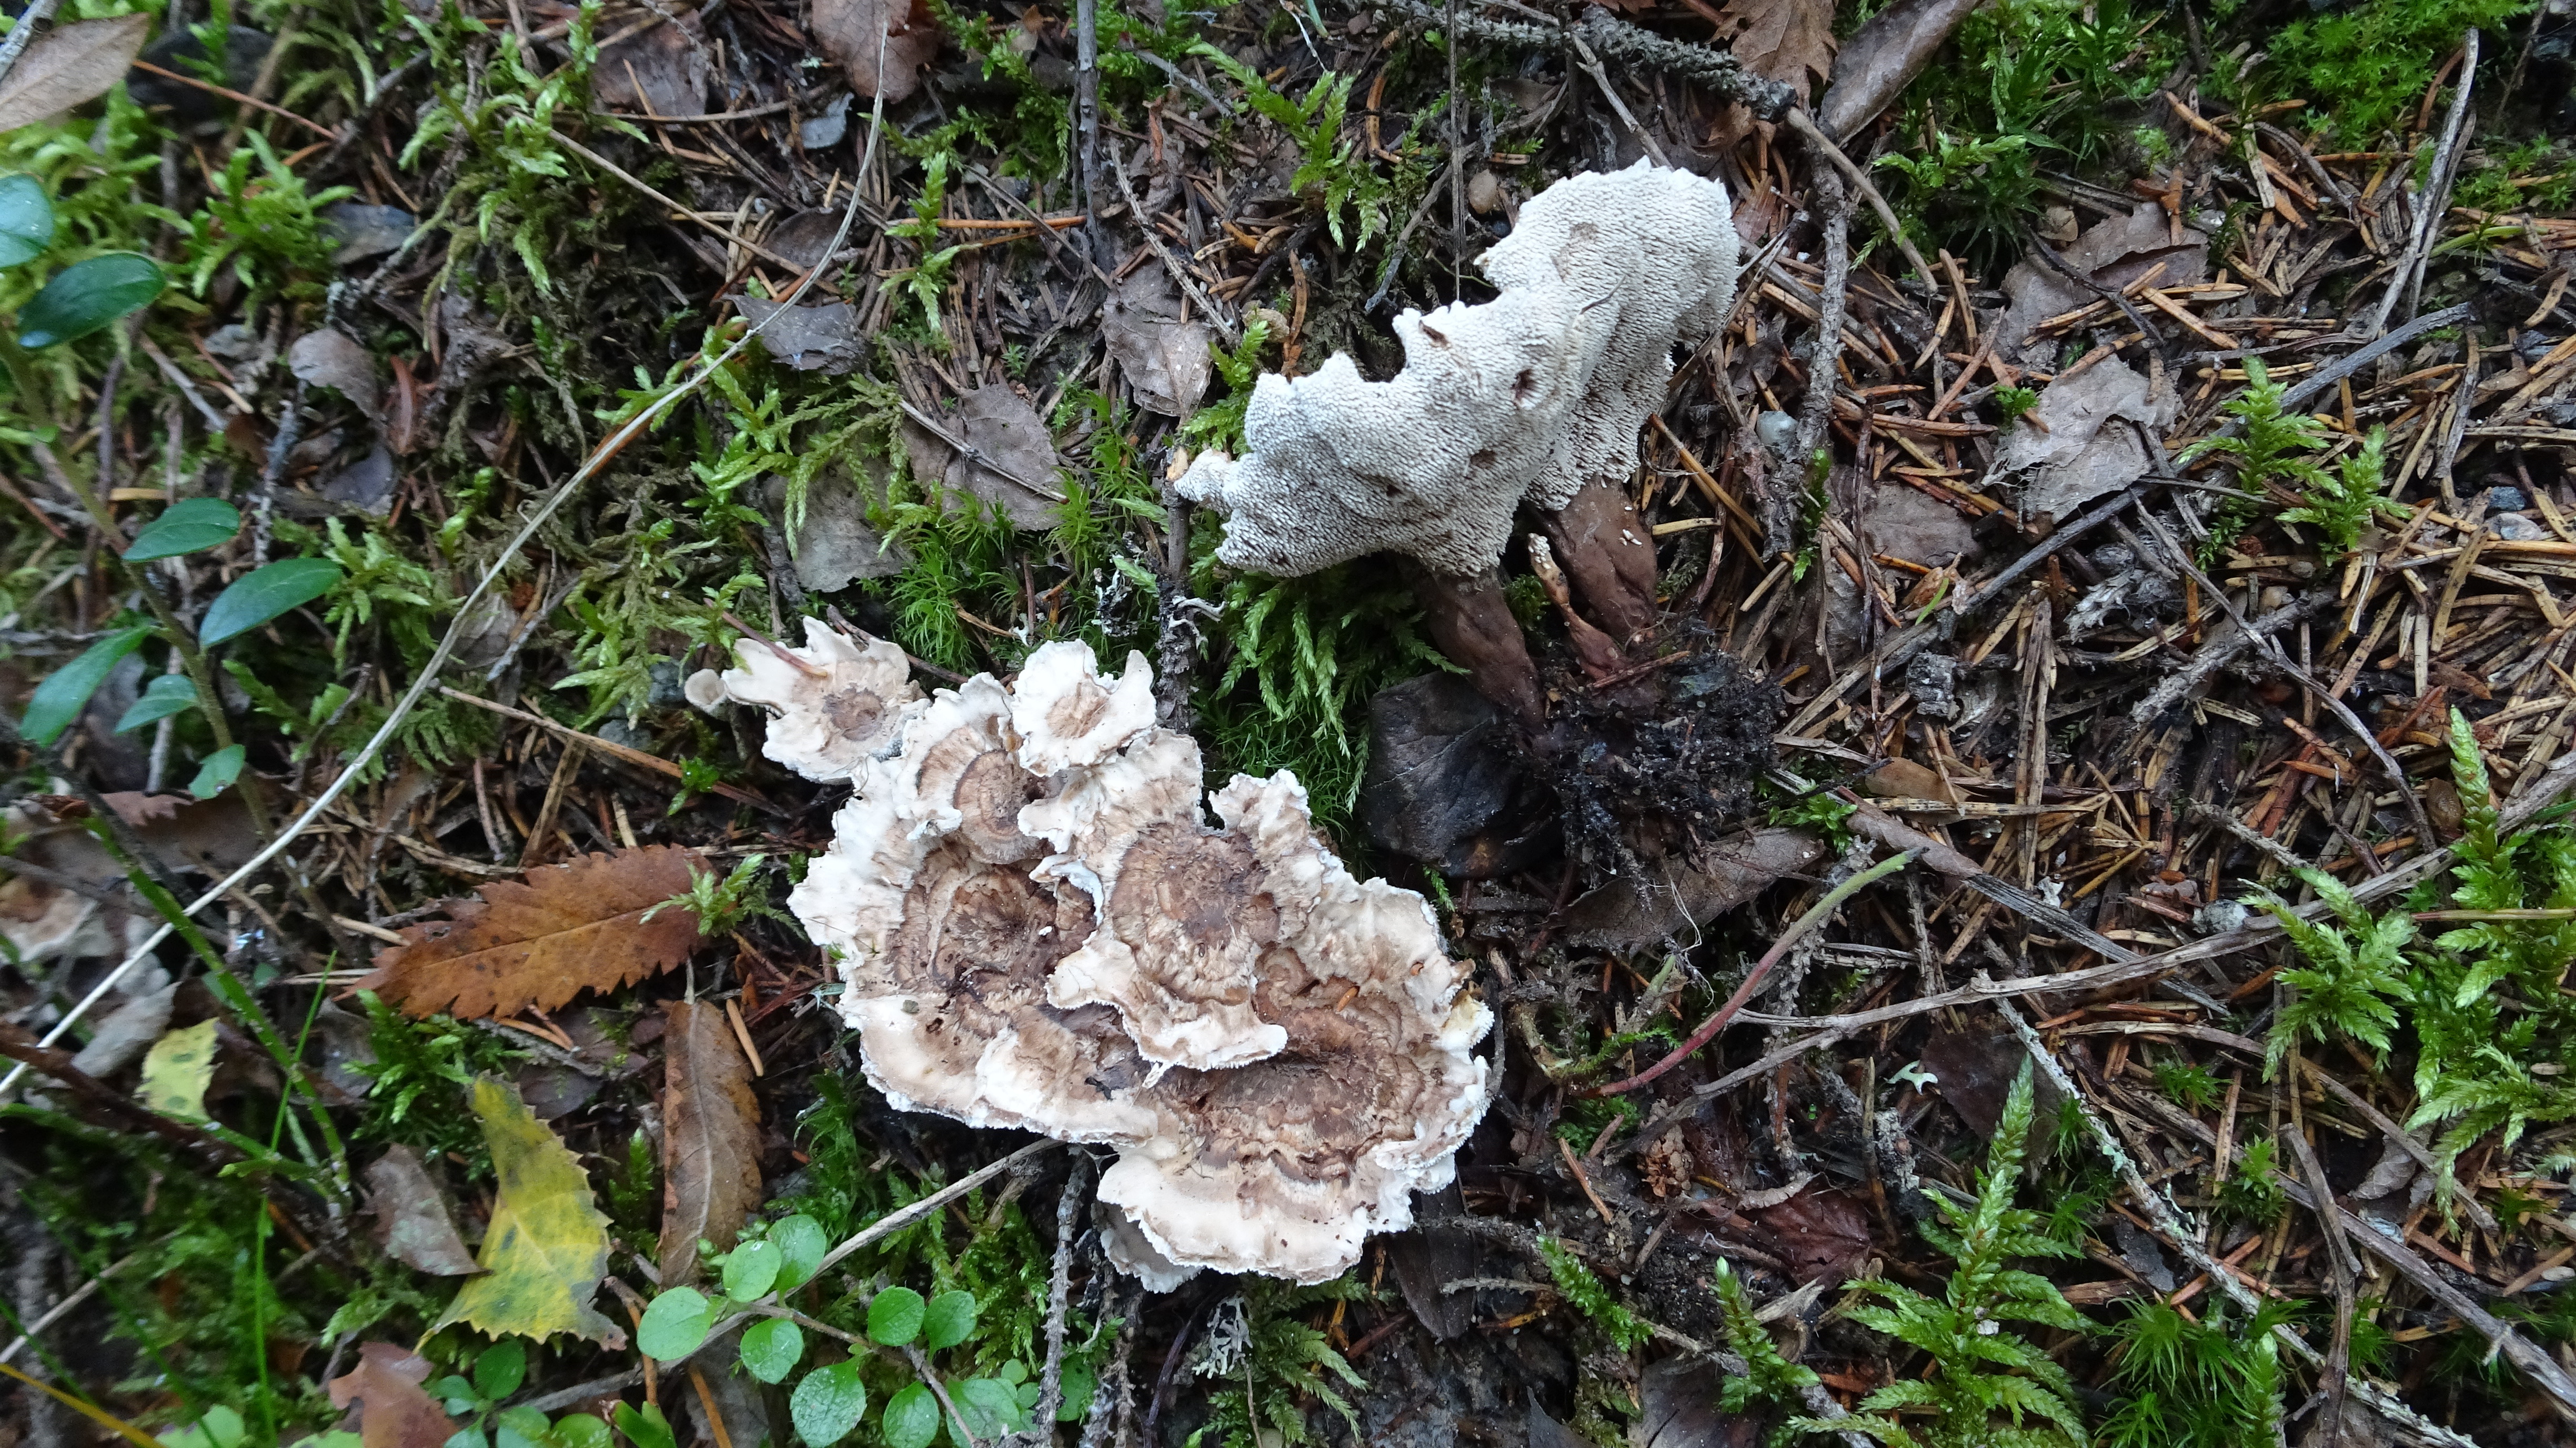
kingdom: Fungi
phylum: Basidiomycota
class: Agaricomycetes
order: Thelephorales
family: Thelephoraceae
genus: Phellodon
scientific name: Phellodon tomentosus
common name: Woolly tooth
